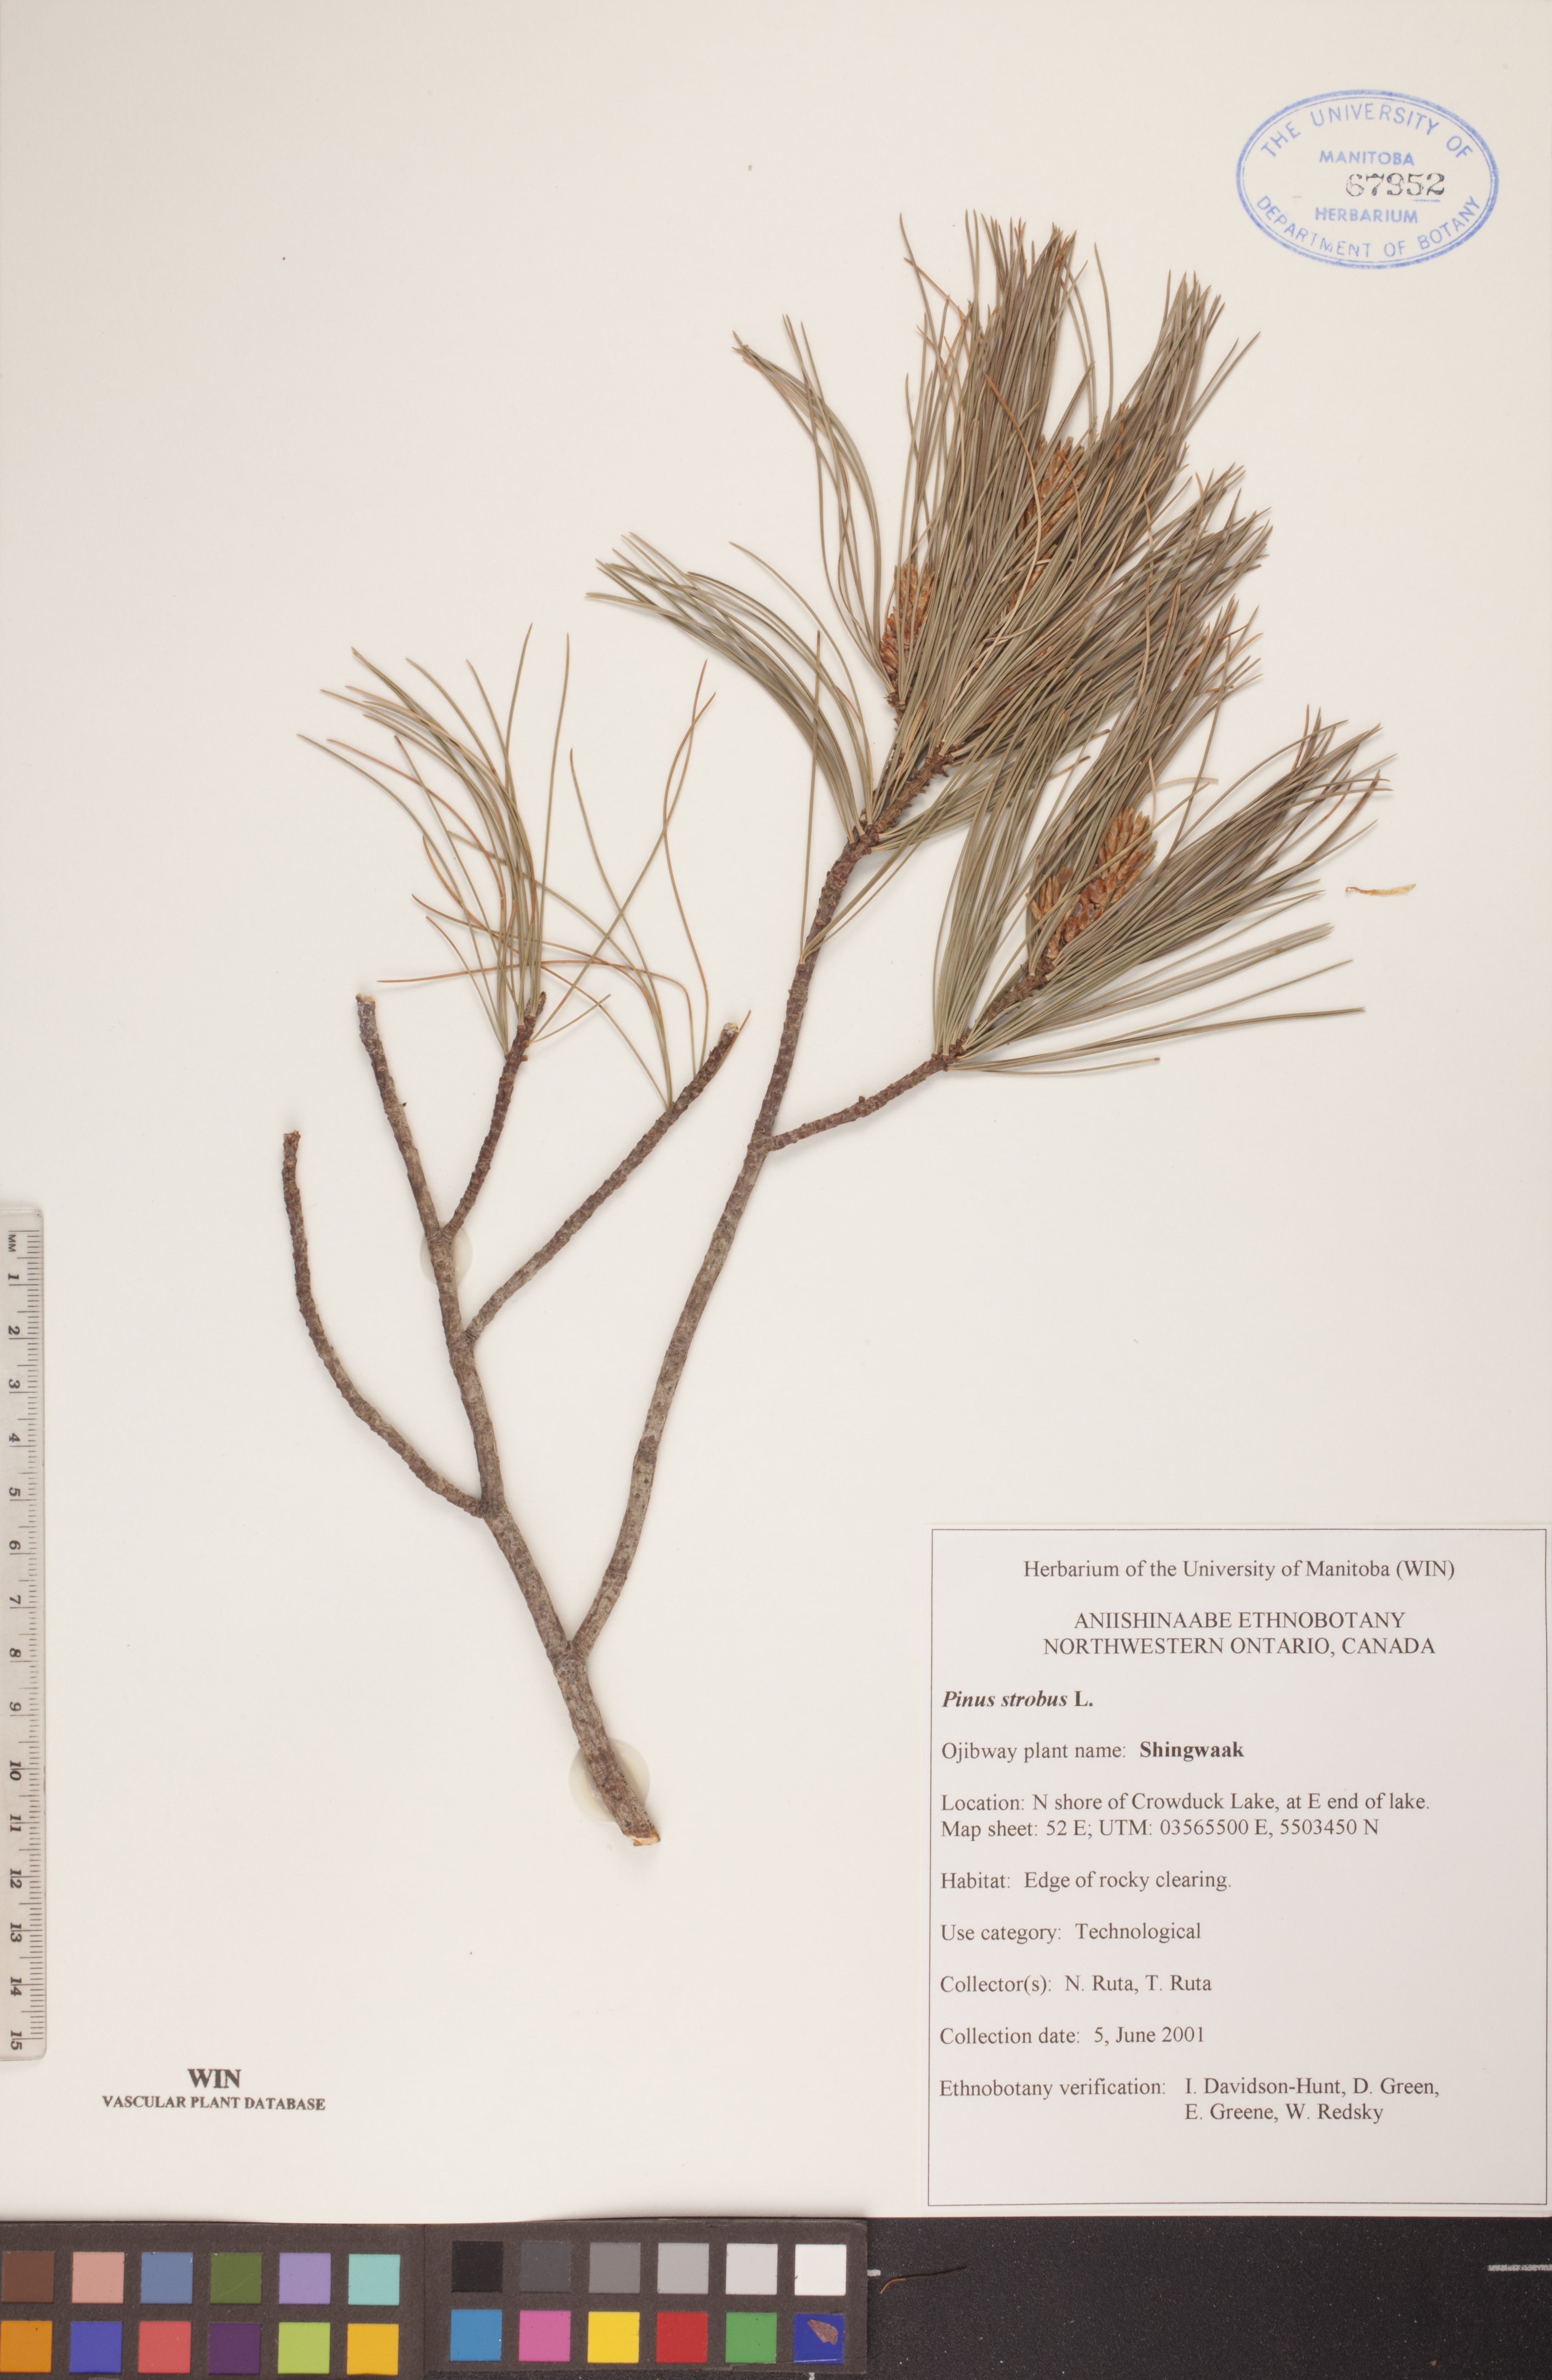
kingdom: Plantae
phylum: Tracheophyta
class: Pinopsida
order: Pinales
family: Pinaceae
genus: Pinus
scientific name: Pinus strobus
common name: Weymouth pine
